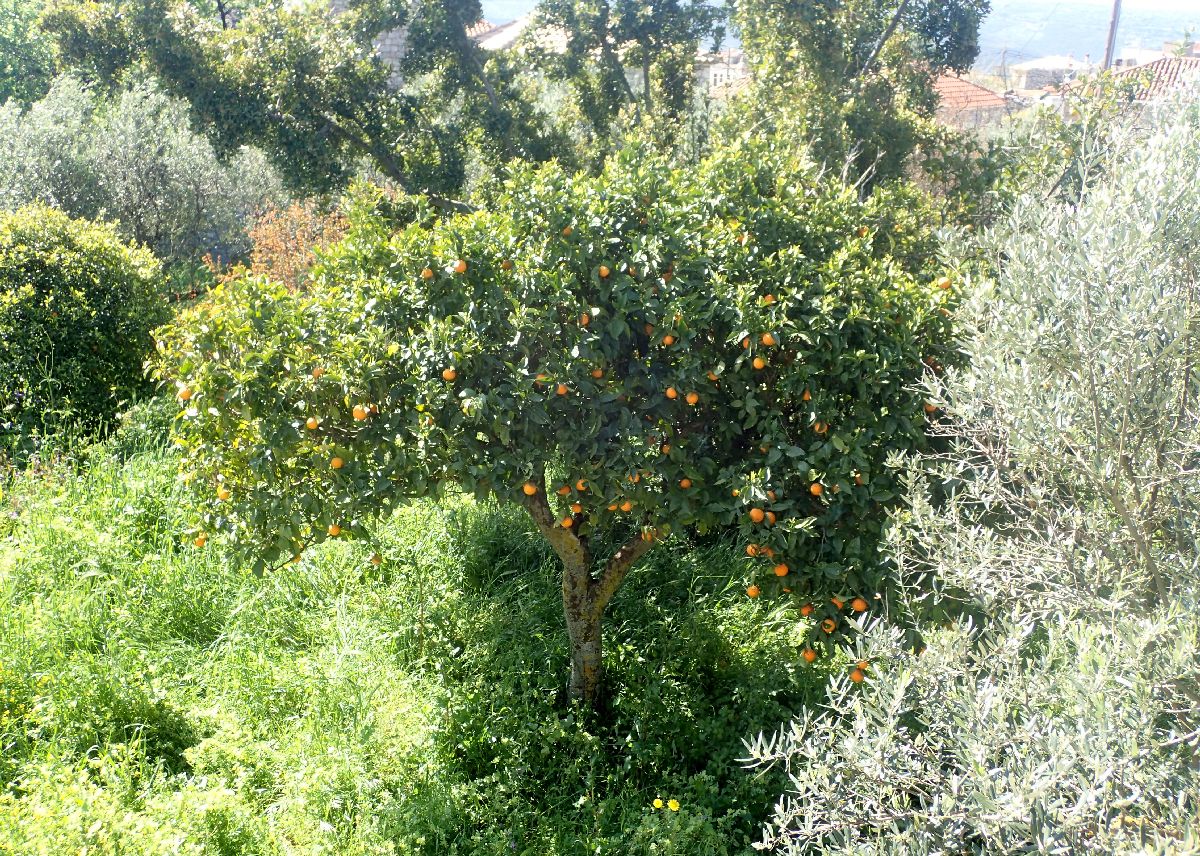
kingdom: Plantae
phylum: Tracheophyta
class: Magnoliopsida
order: Sapindales
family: Rutaceae
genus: Citrus
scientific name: Citrus aurantium
